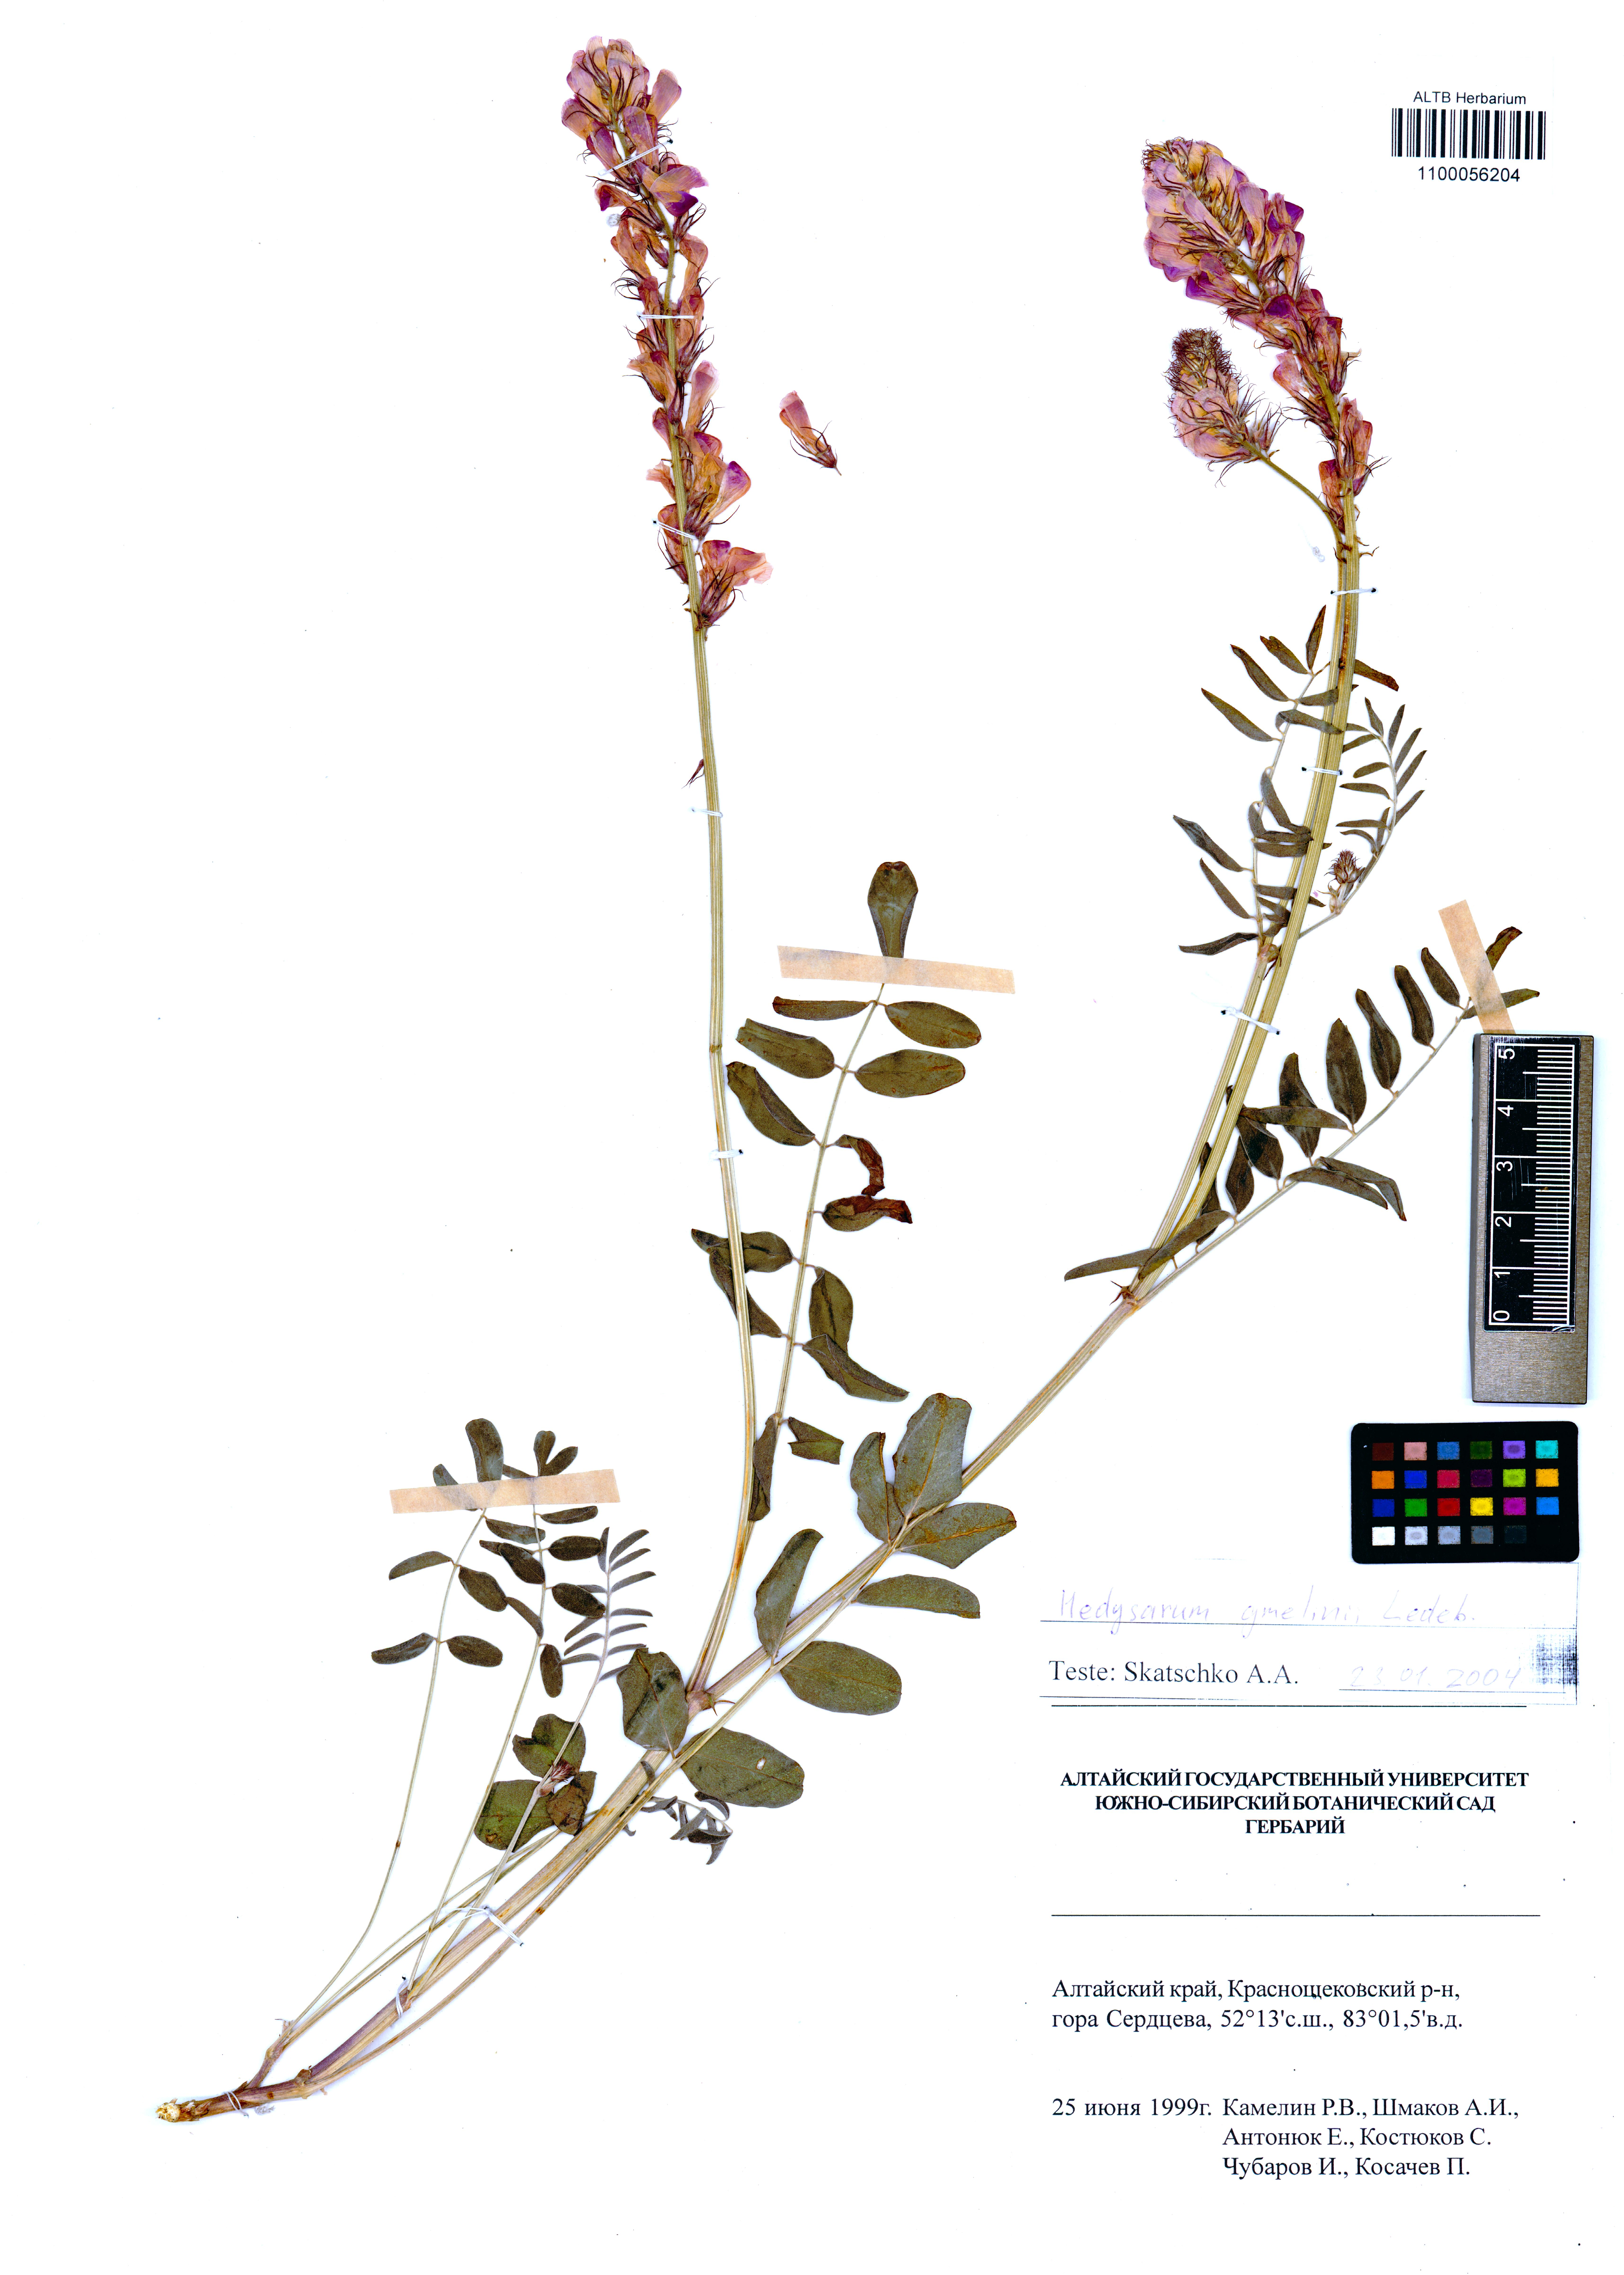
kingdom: Plantae
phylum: Tracheophyta
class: Magnoliopsida
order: Fabales
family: Fabaceae
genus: Hedysarum
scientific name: Hedysarum gmelinii
